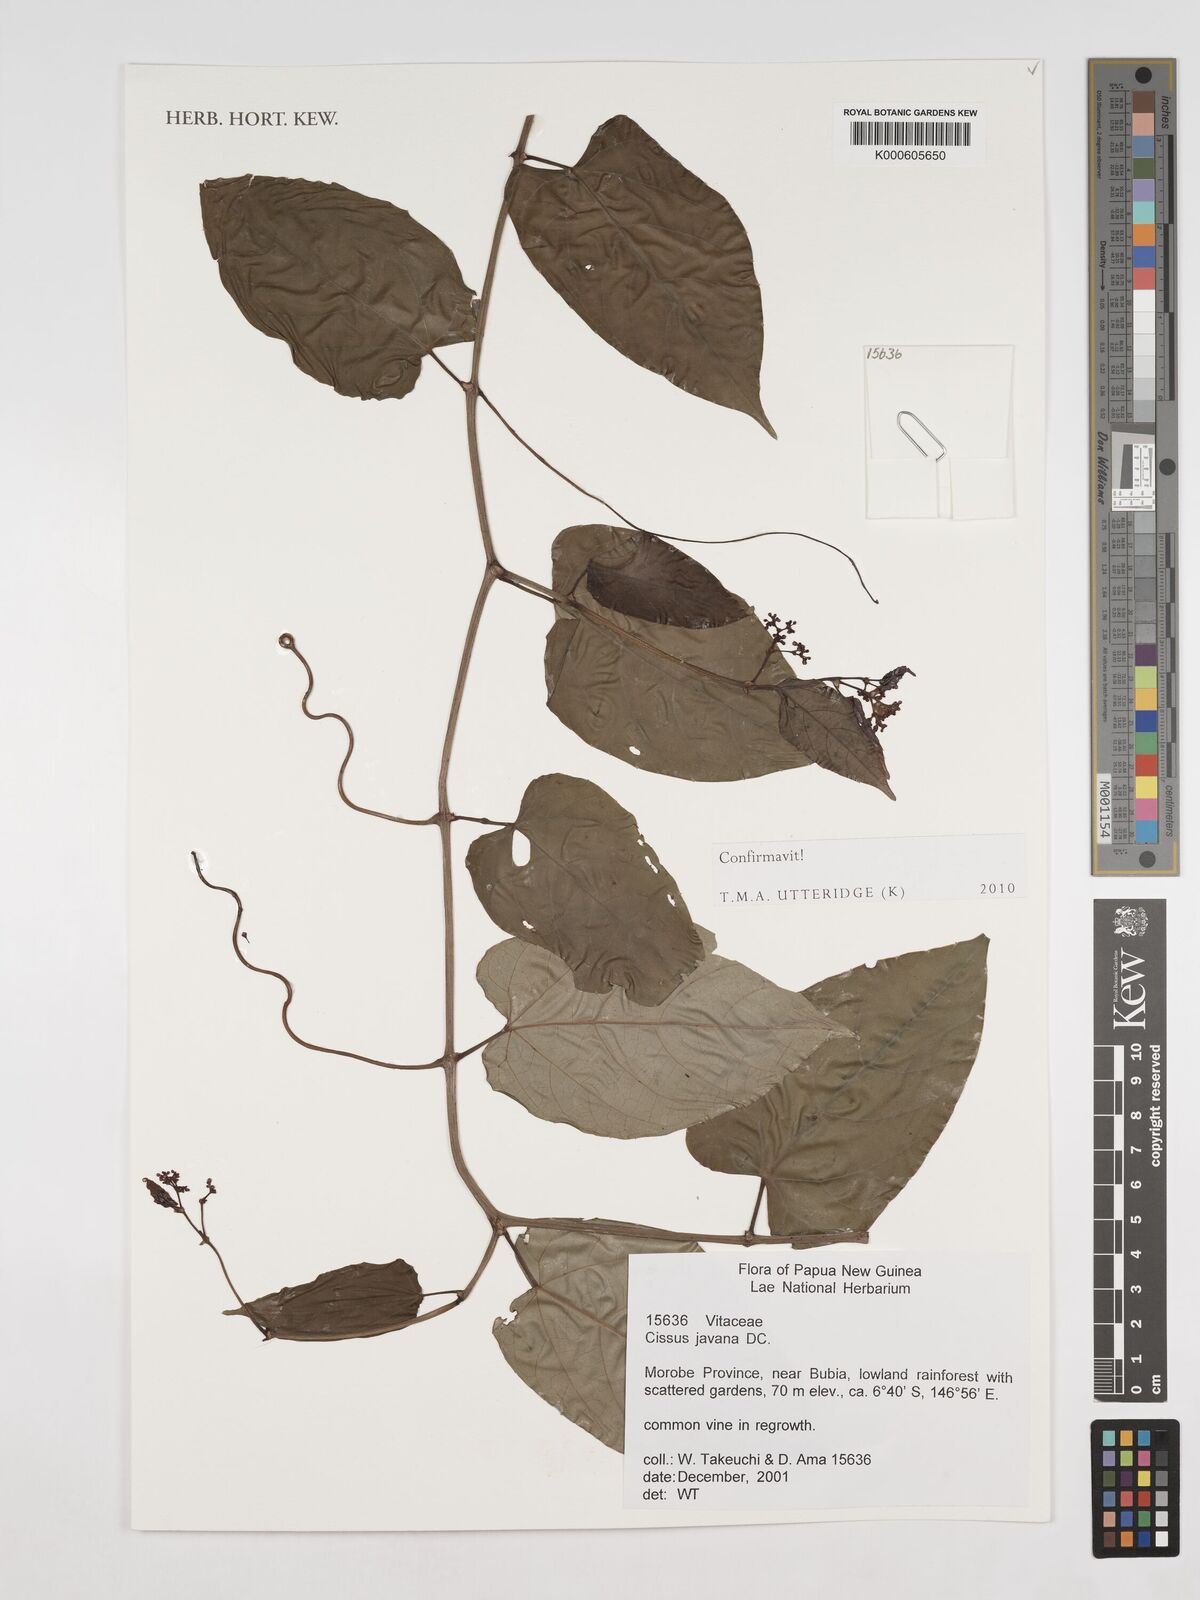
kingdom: Plantae
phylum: Tracheophyta
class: Magnoliopsida
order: Vitales
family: Vitaceae
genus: Cissus
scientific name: Cissus discolor
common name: Climbing-begonia
